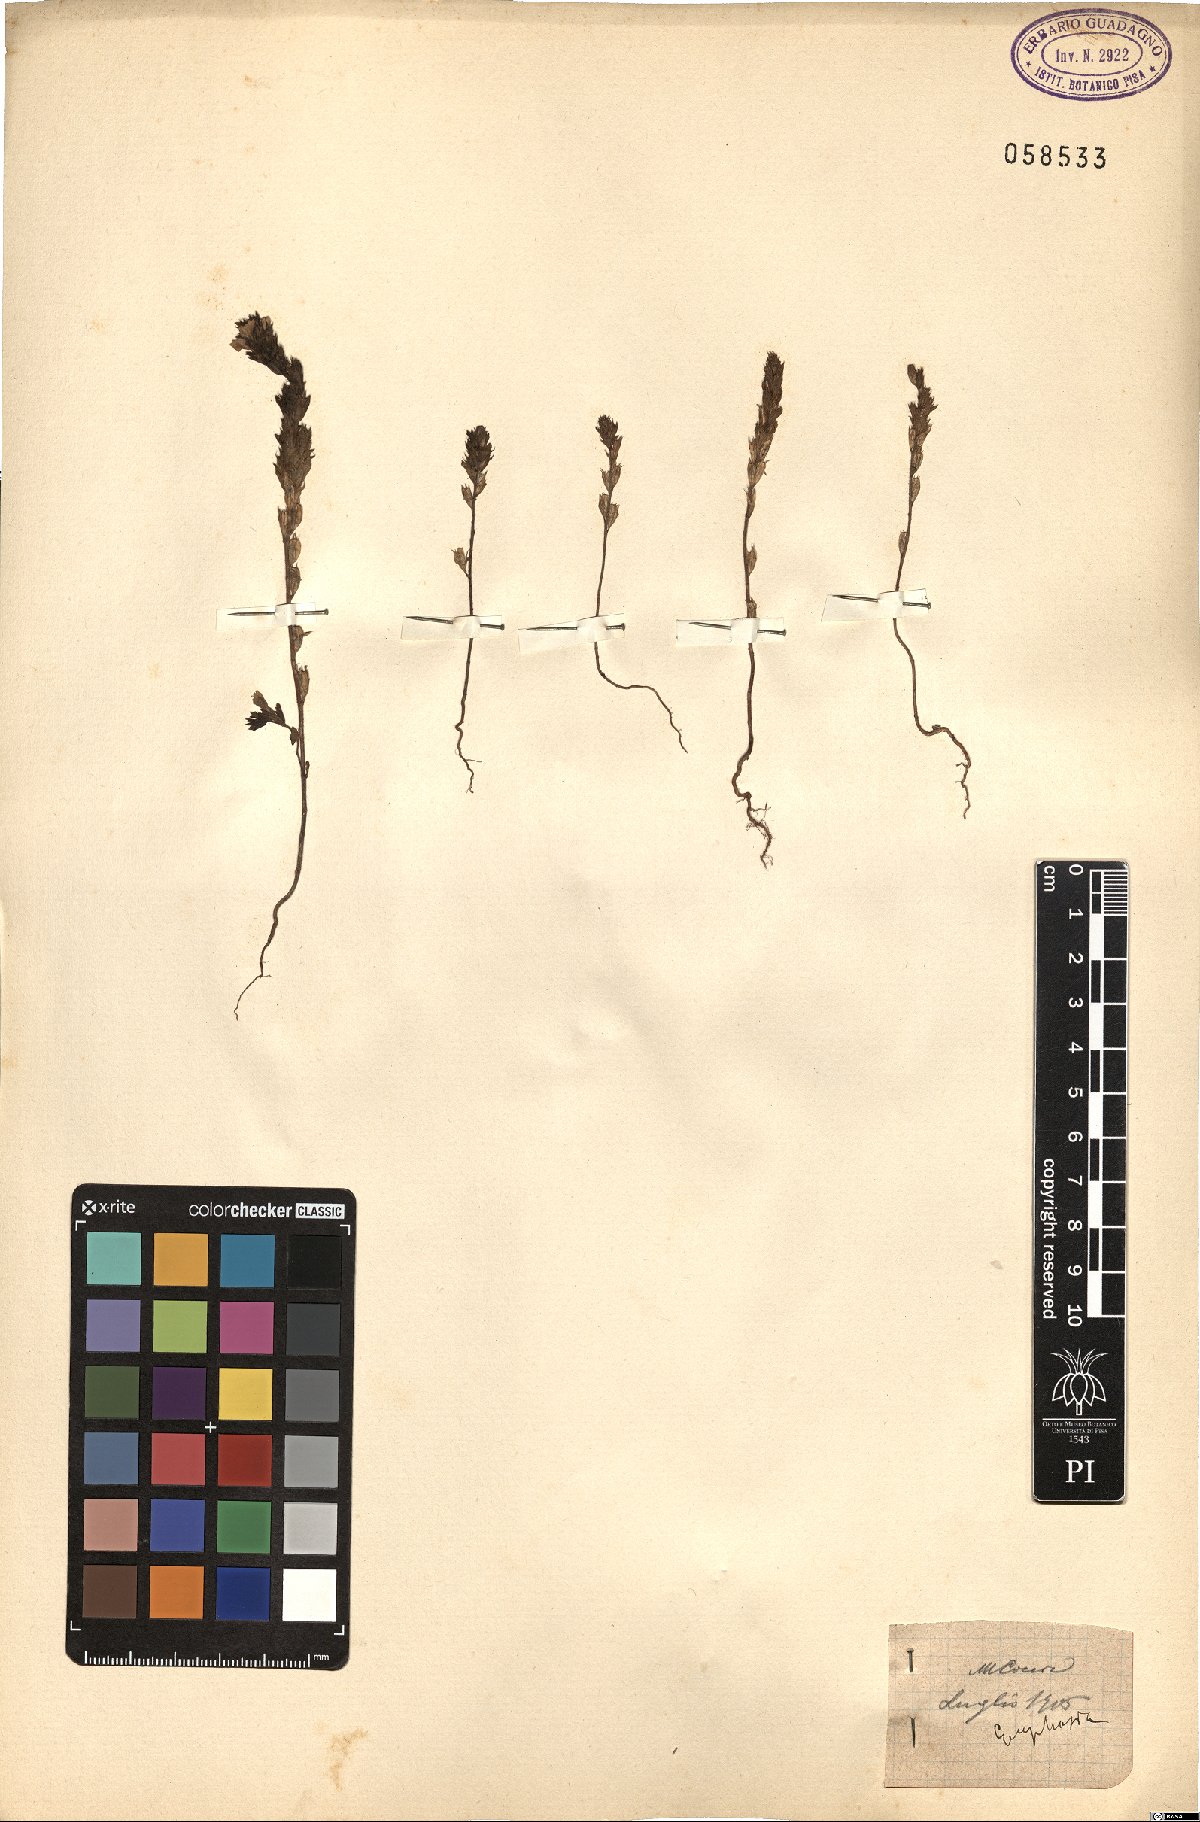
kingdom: Plantae
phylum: Tracheophyta
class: Magnoliopsida
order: Lamiales
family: Orobanchaceae
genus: Euphrasia
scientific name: Euphrasia
